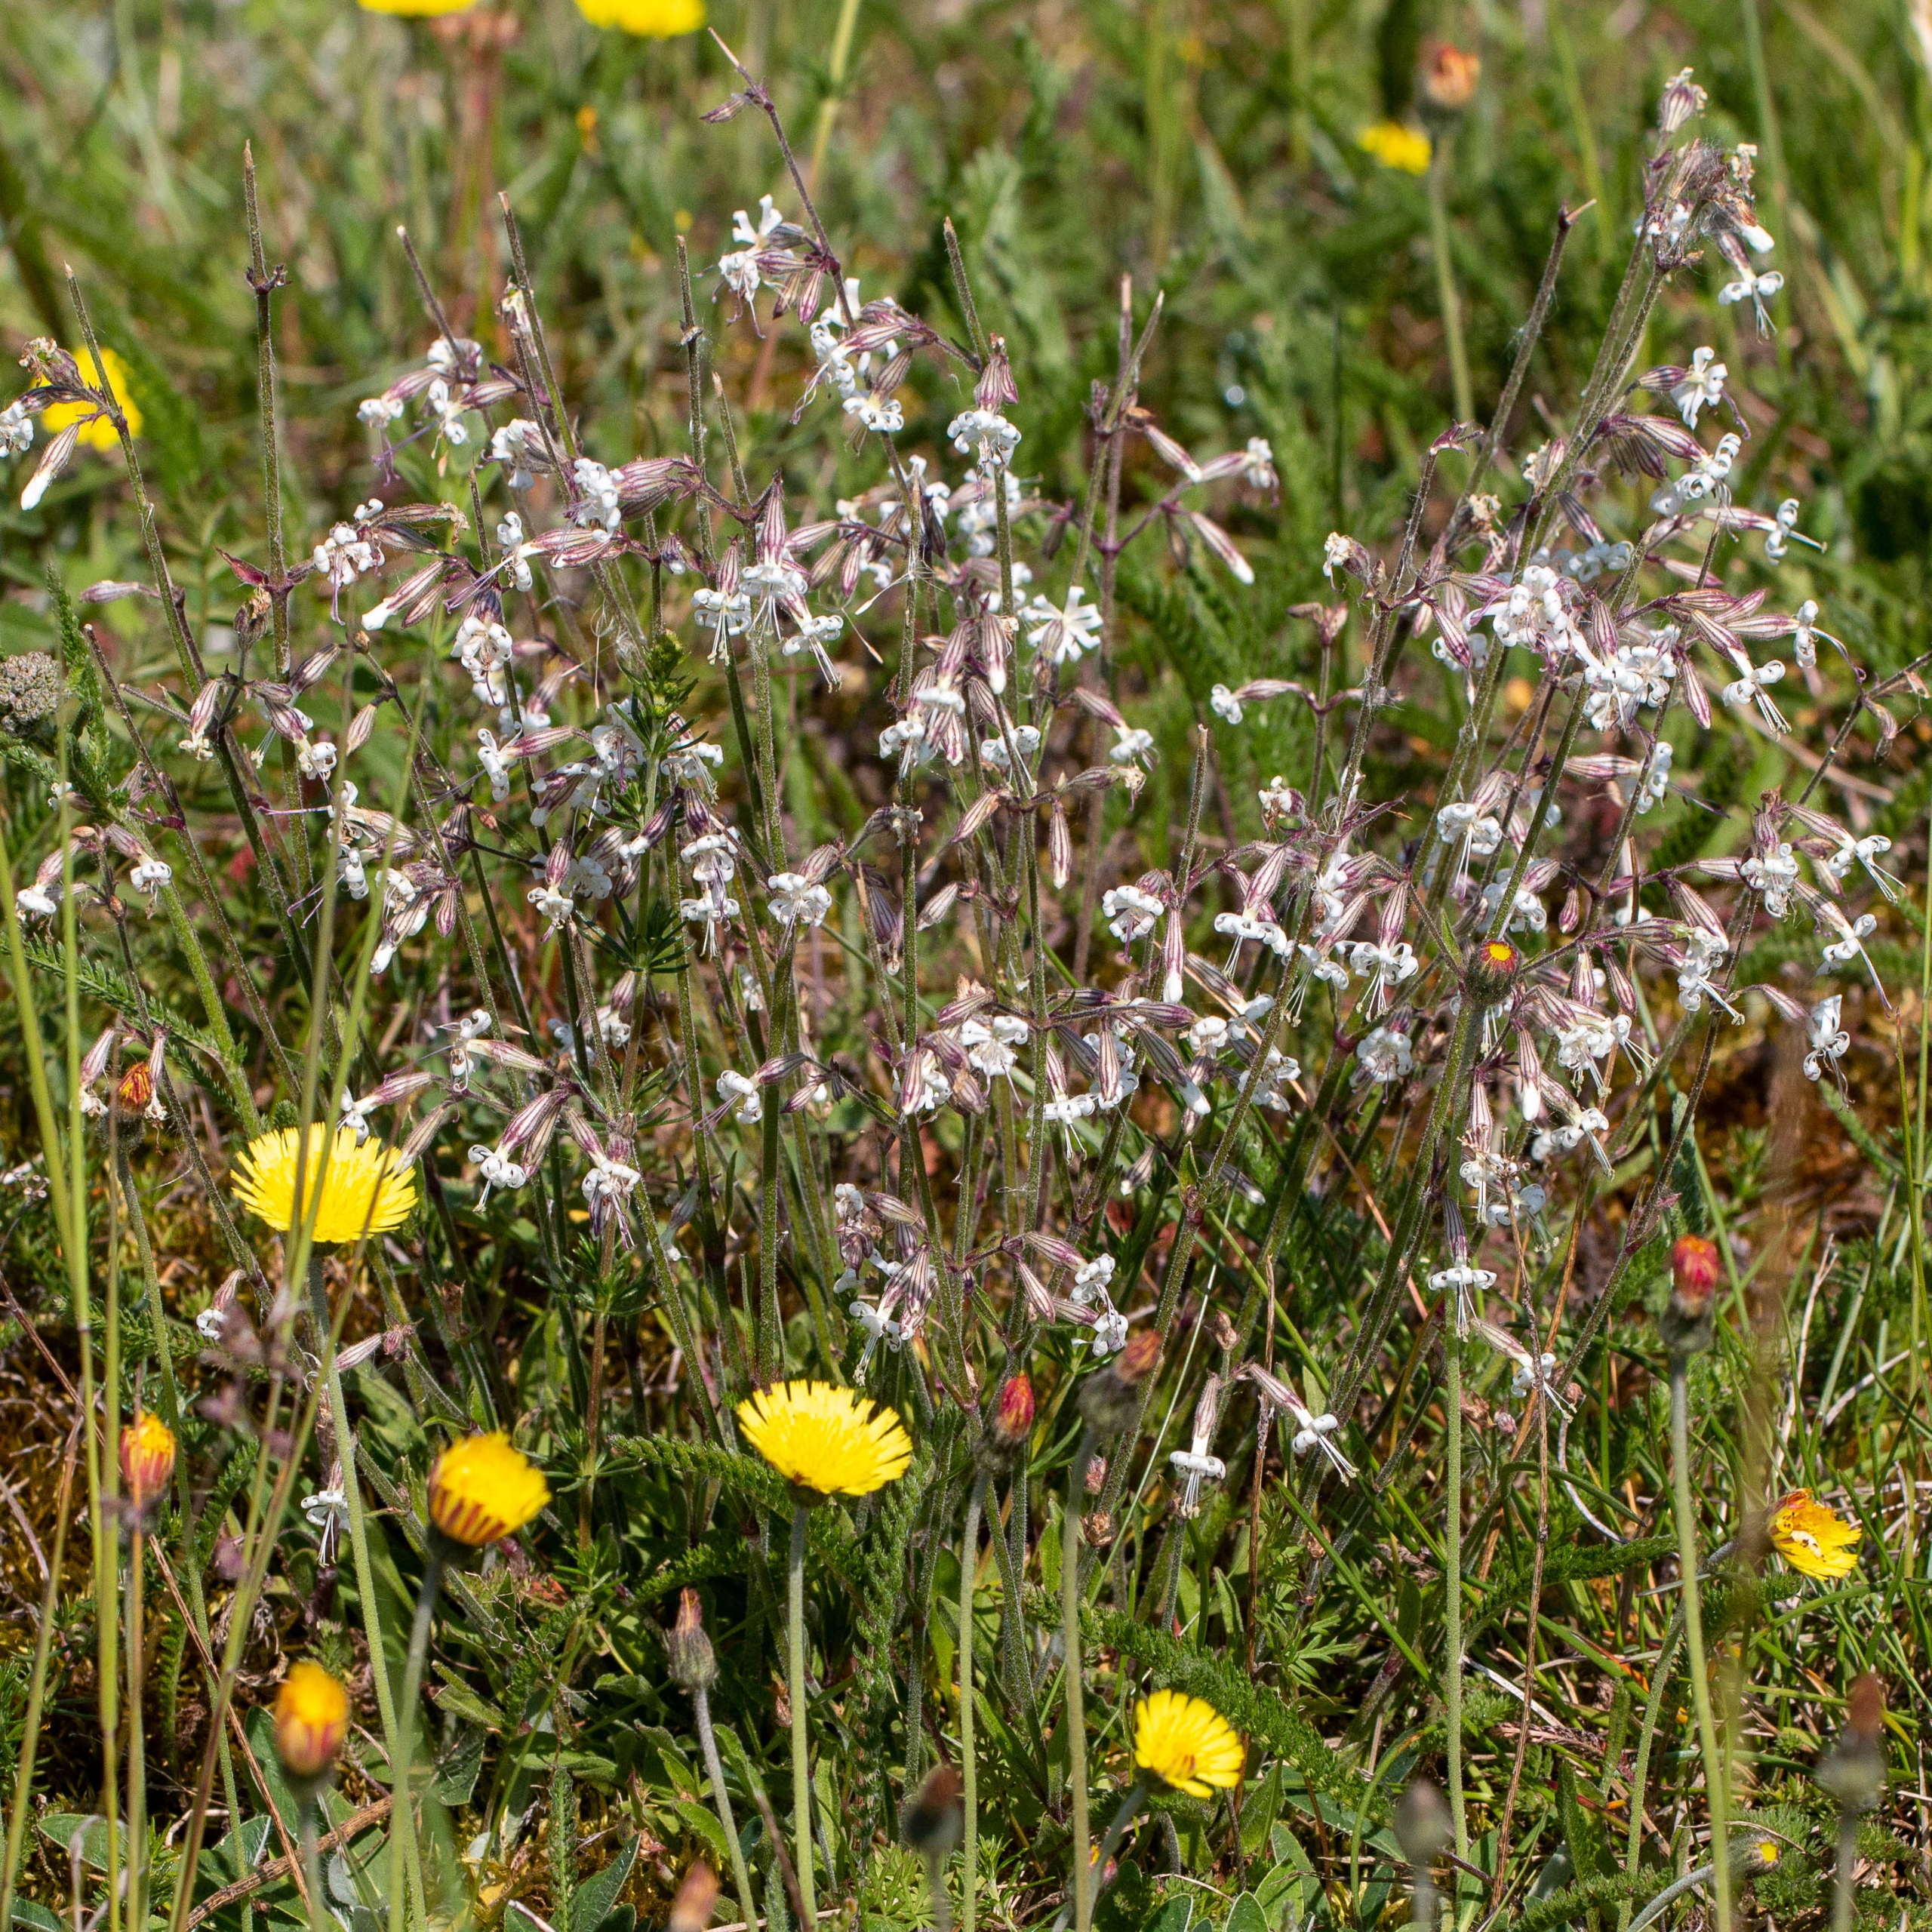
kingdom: Plantae
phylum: Tracheophyta
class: Magnoliopsida
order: Caryophyllales
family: Caryophyllaceae
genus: Silene
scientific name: Silene nutans
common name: Nikkende limurt
